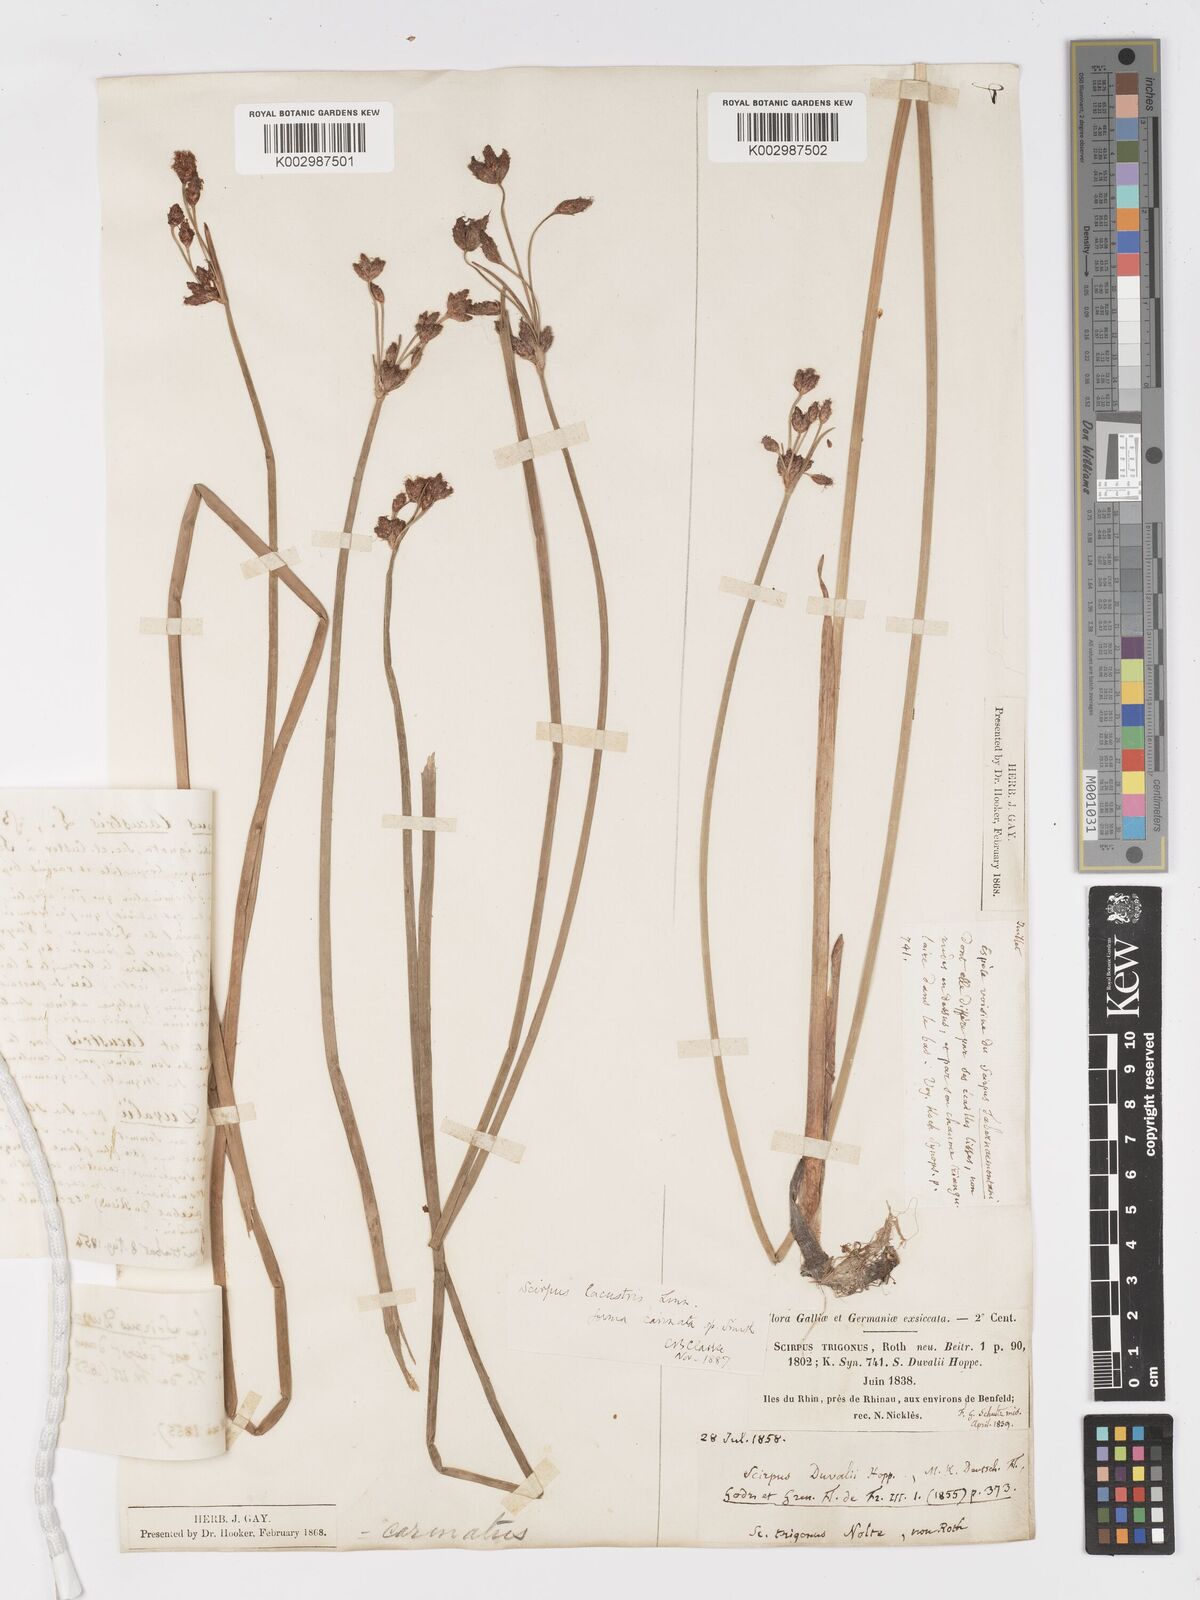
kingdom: Plantae
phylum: Tracheophyta
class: Liliopsida
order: Poales
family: Cyperaceae
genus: Schoenoplectus
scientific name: Schoenoplectus lacustris
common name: Common club-rush
